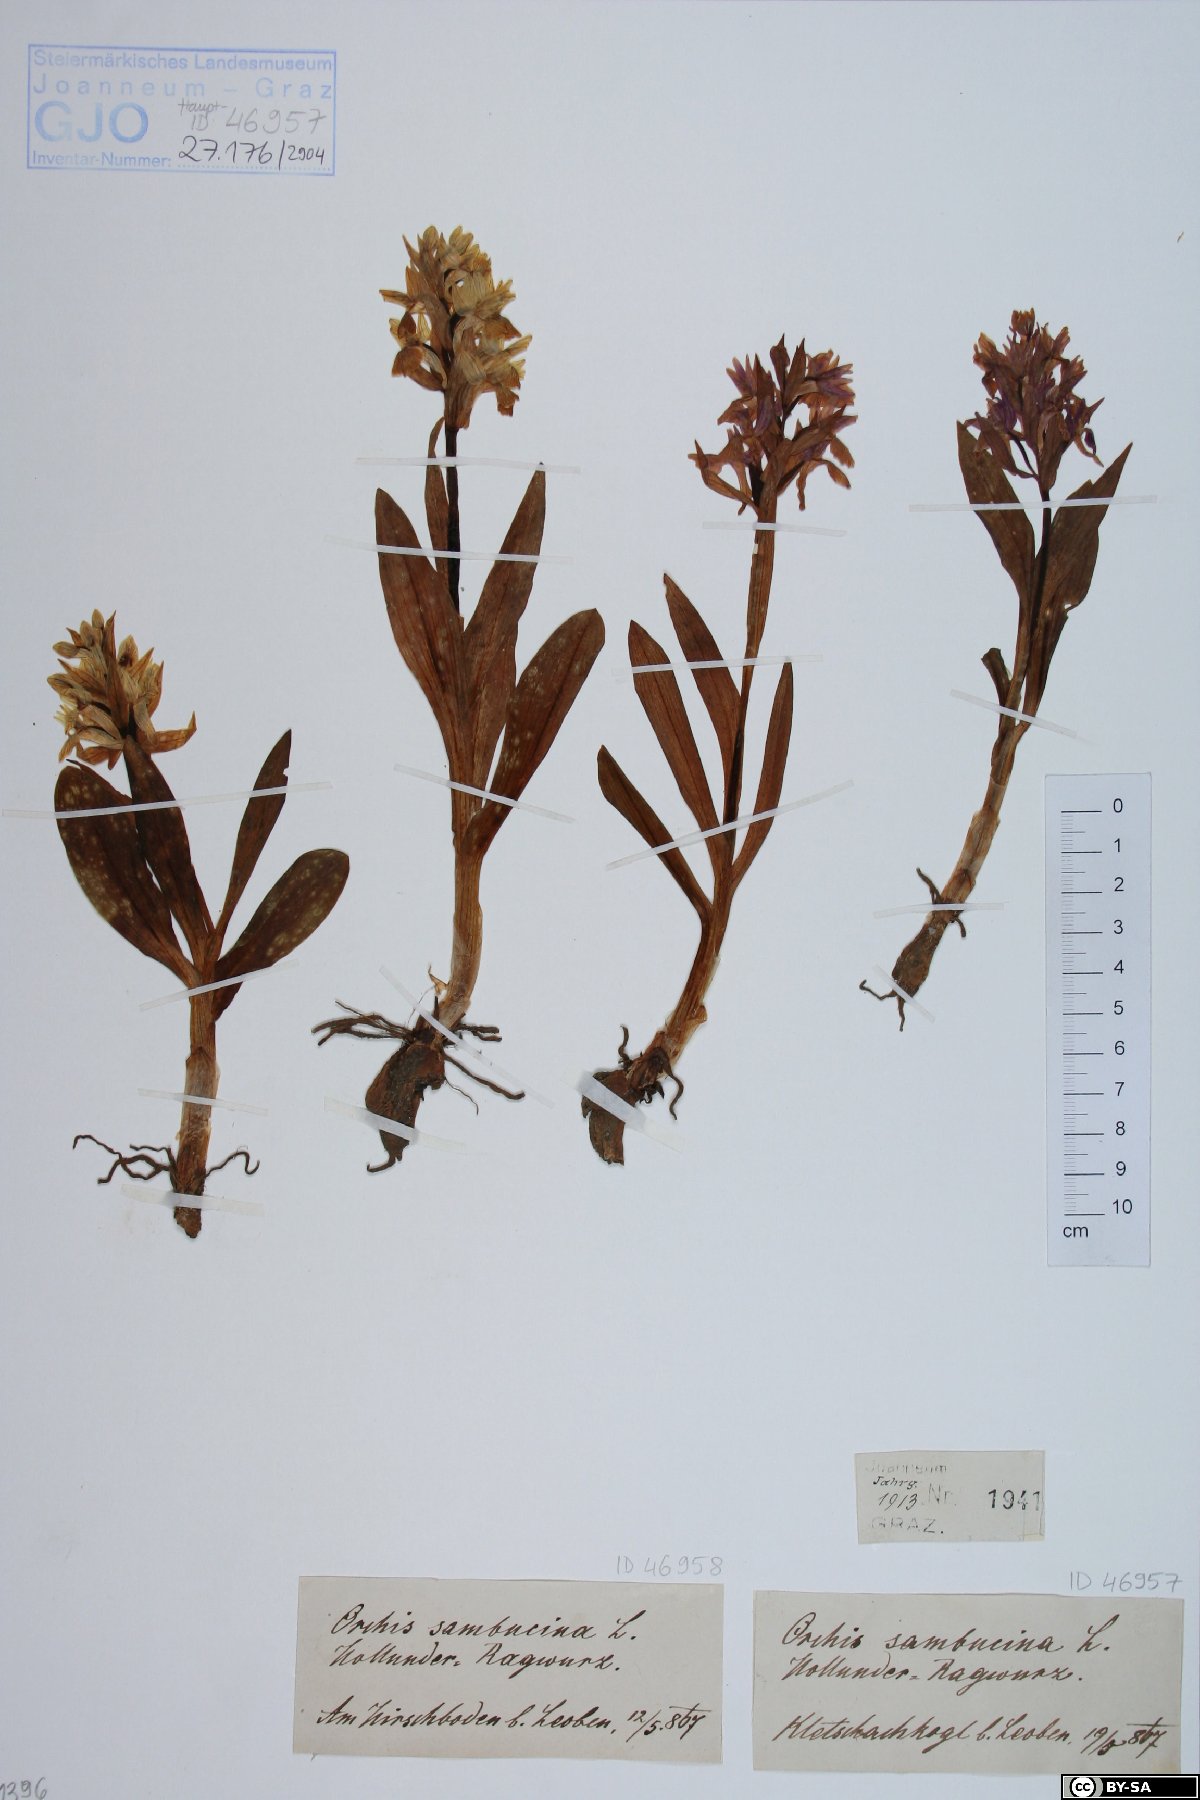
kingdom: Plantae
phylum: Tracheophyta
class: Liliopsida
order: Asparagales
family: Orchidaceae
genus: Dactylorhiza
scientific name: Dactylorhiza sambucina
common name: Elder-flowered orchid
